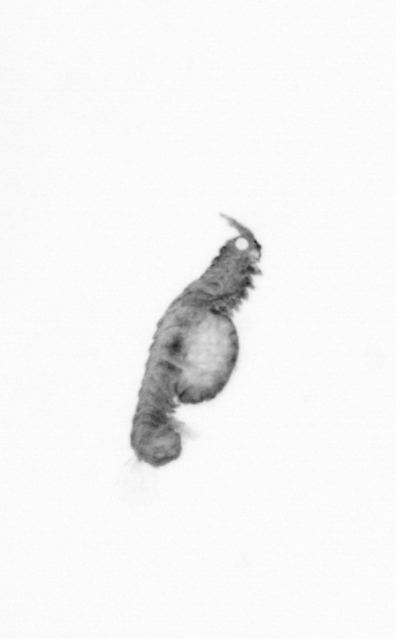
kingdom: Animalia
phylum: Annelida
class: Polychaeta
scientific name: Polychaeta
